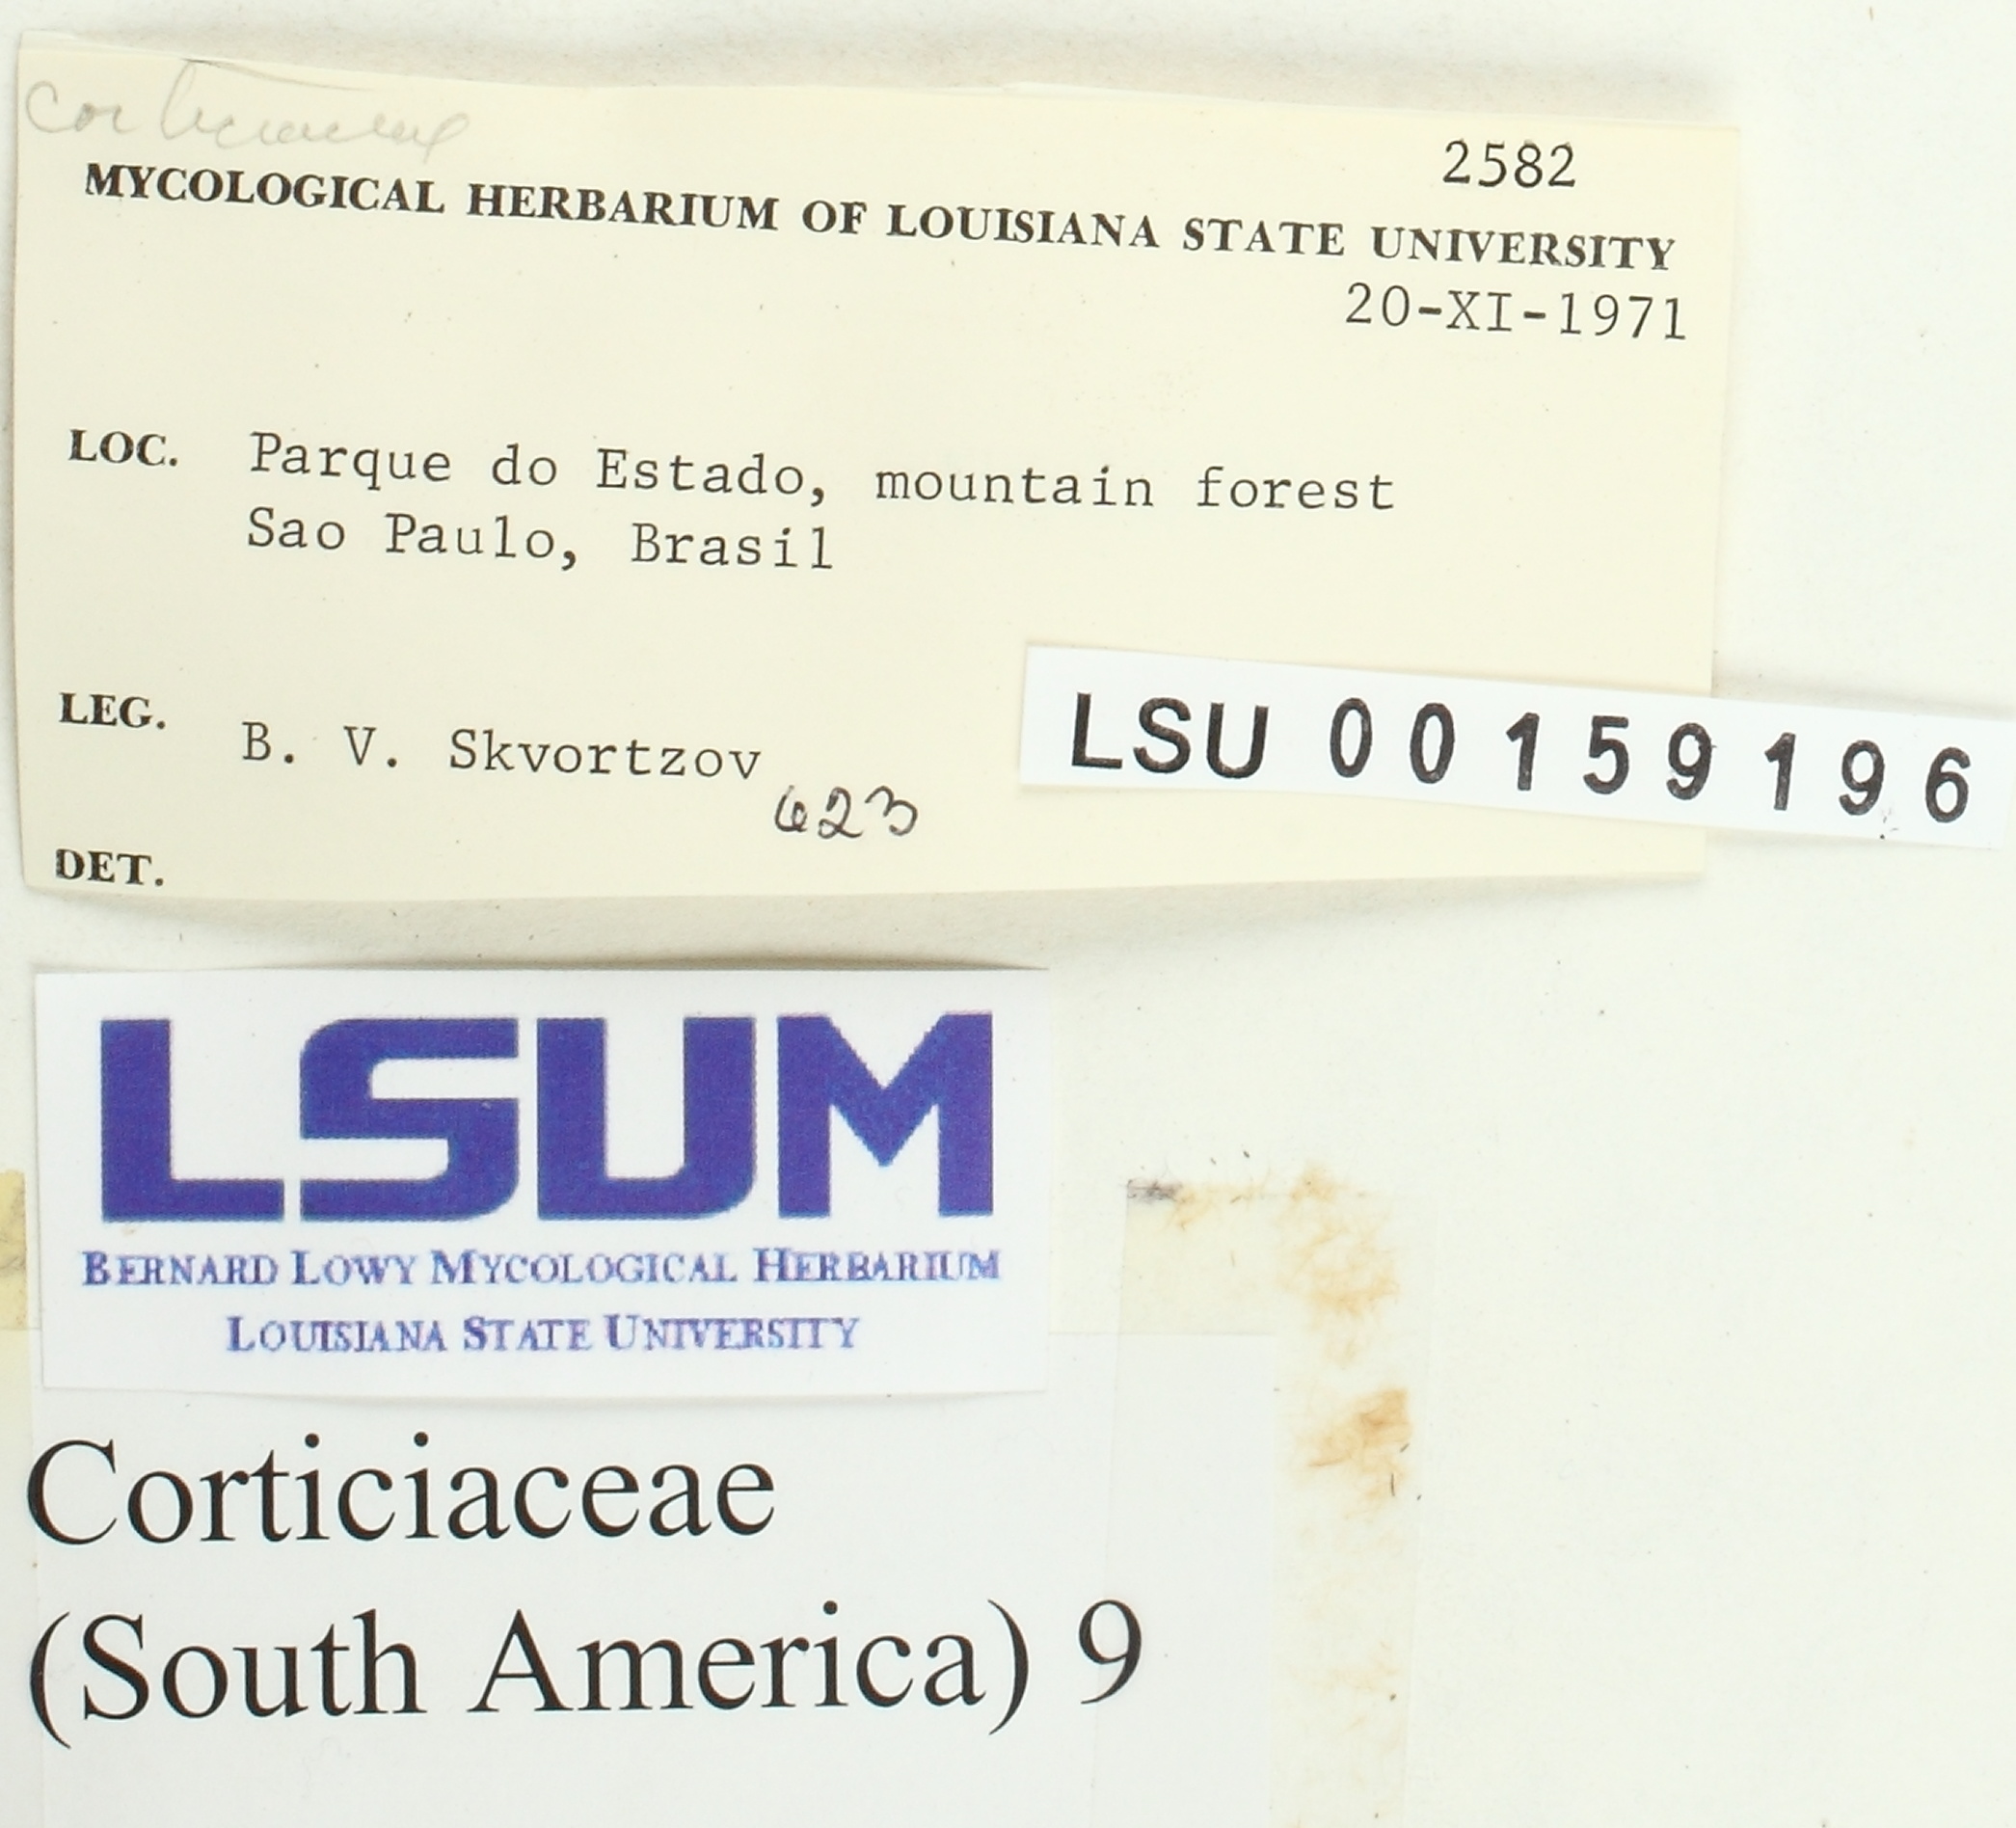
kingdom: Fungi
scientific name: Fungi
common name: Fungi
